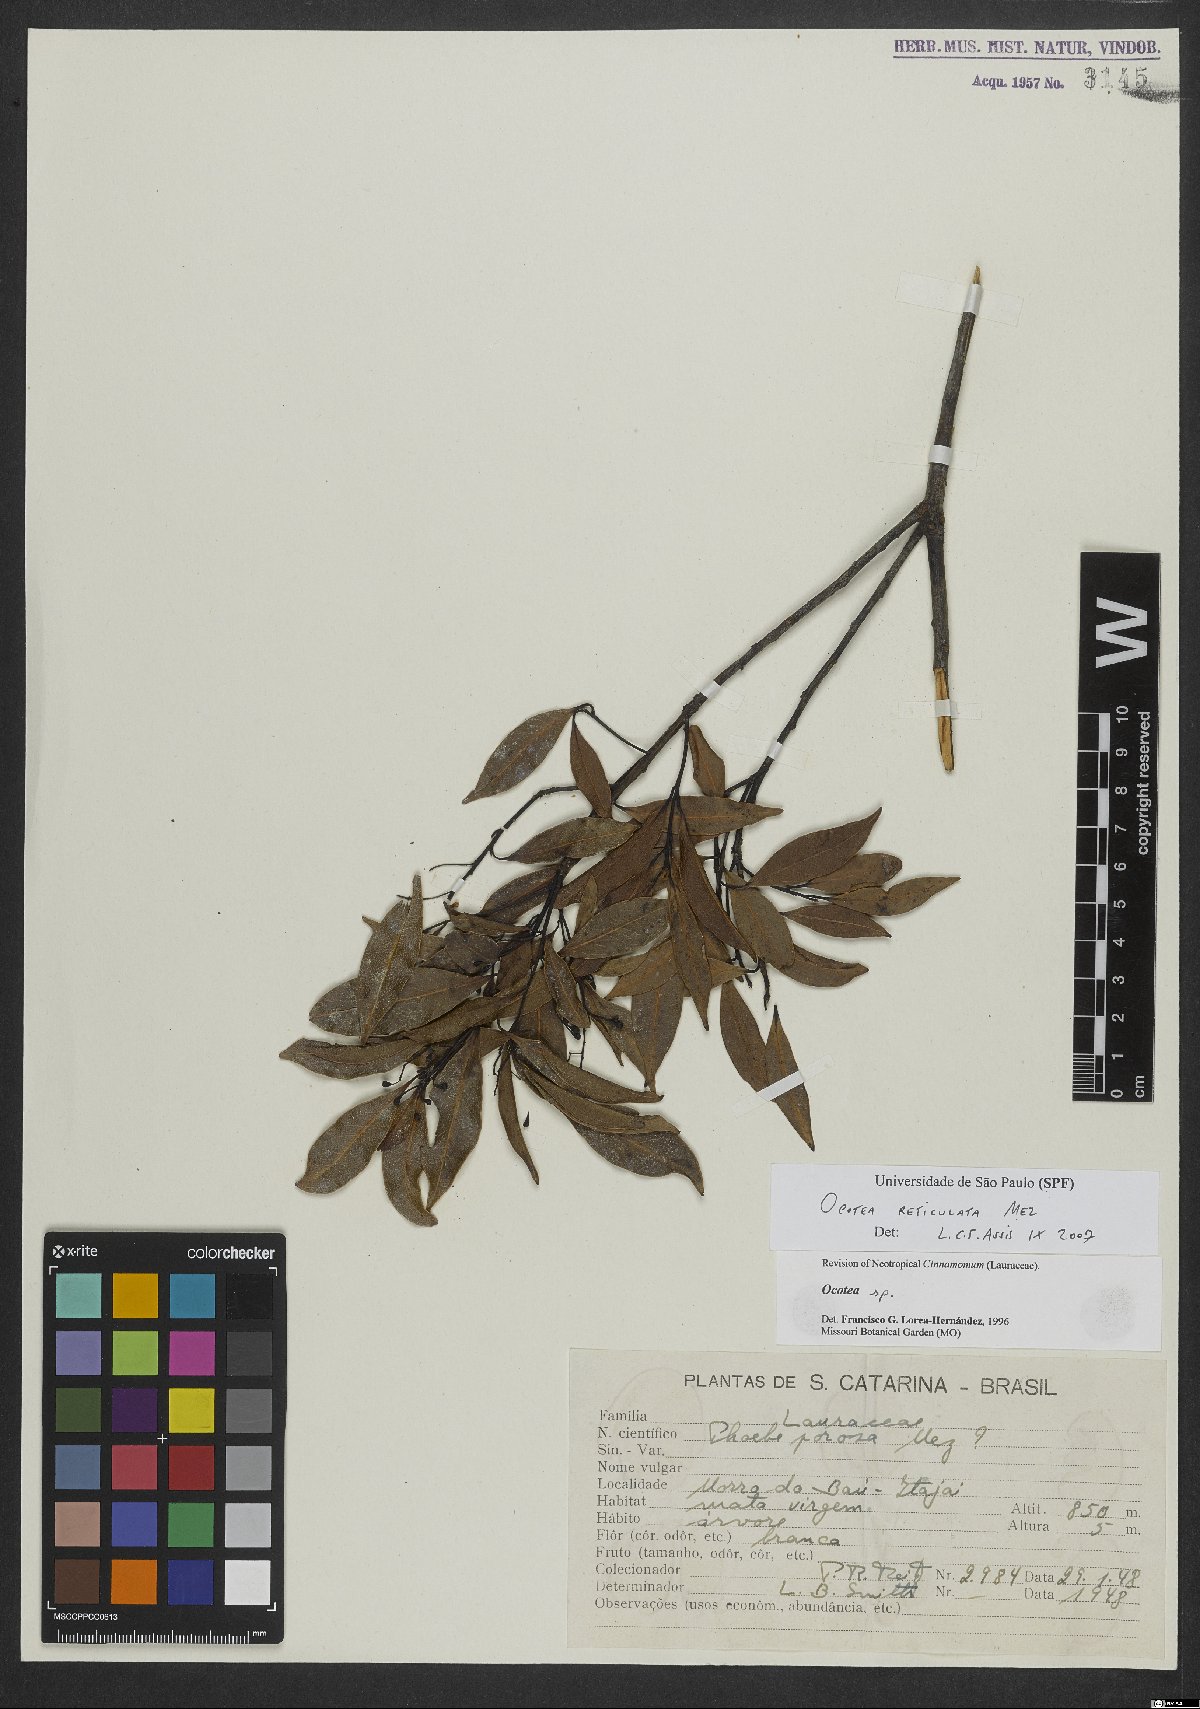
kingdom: Plantae
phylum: Tracheophyta
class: Magnoliopsida
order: Laurales
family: Lauraceae
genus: Mespilodaphne
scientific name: Mespilodaphne corymbosa
